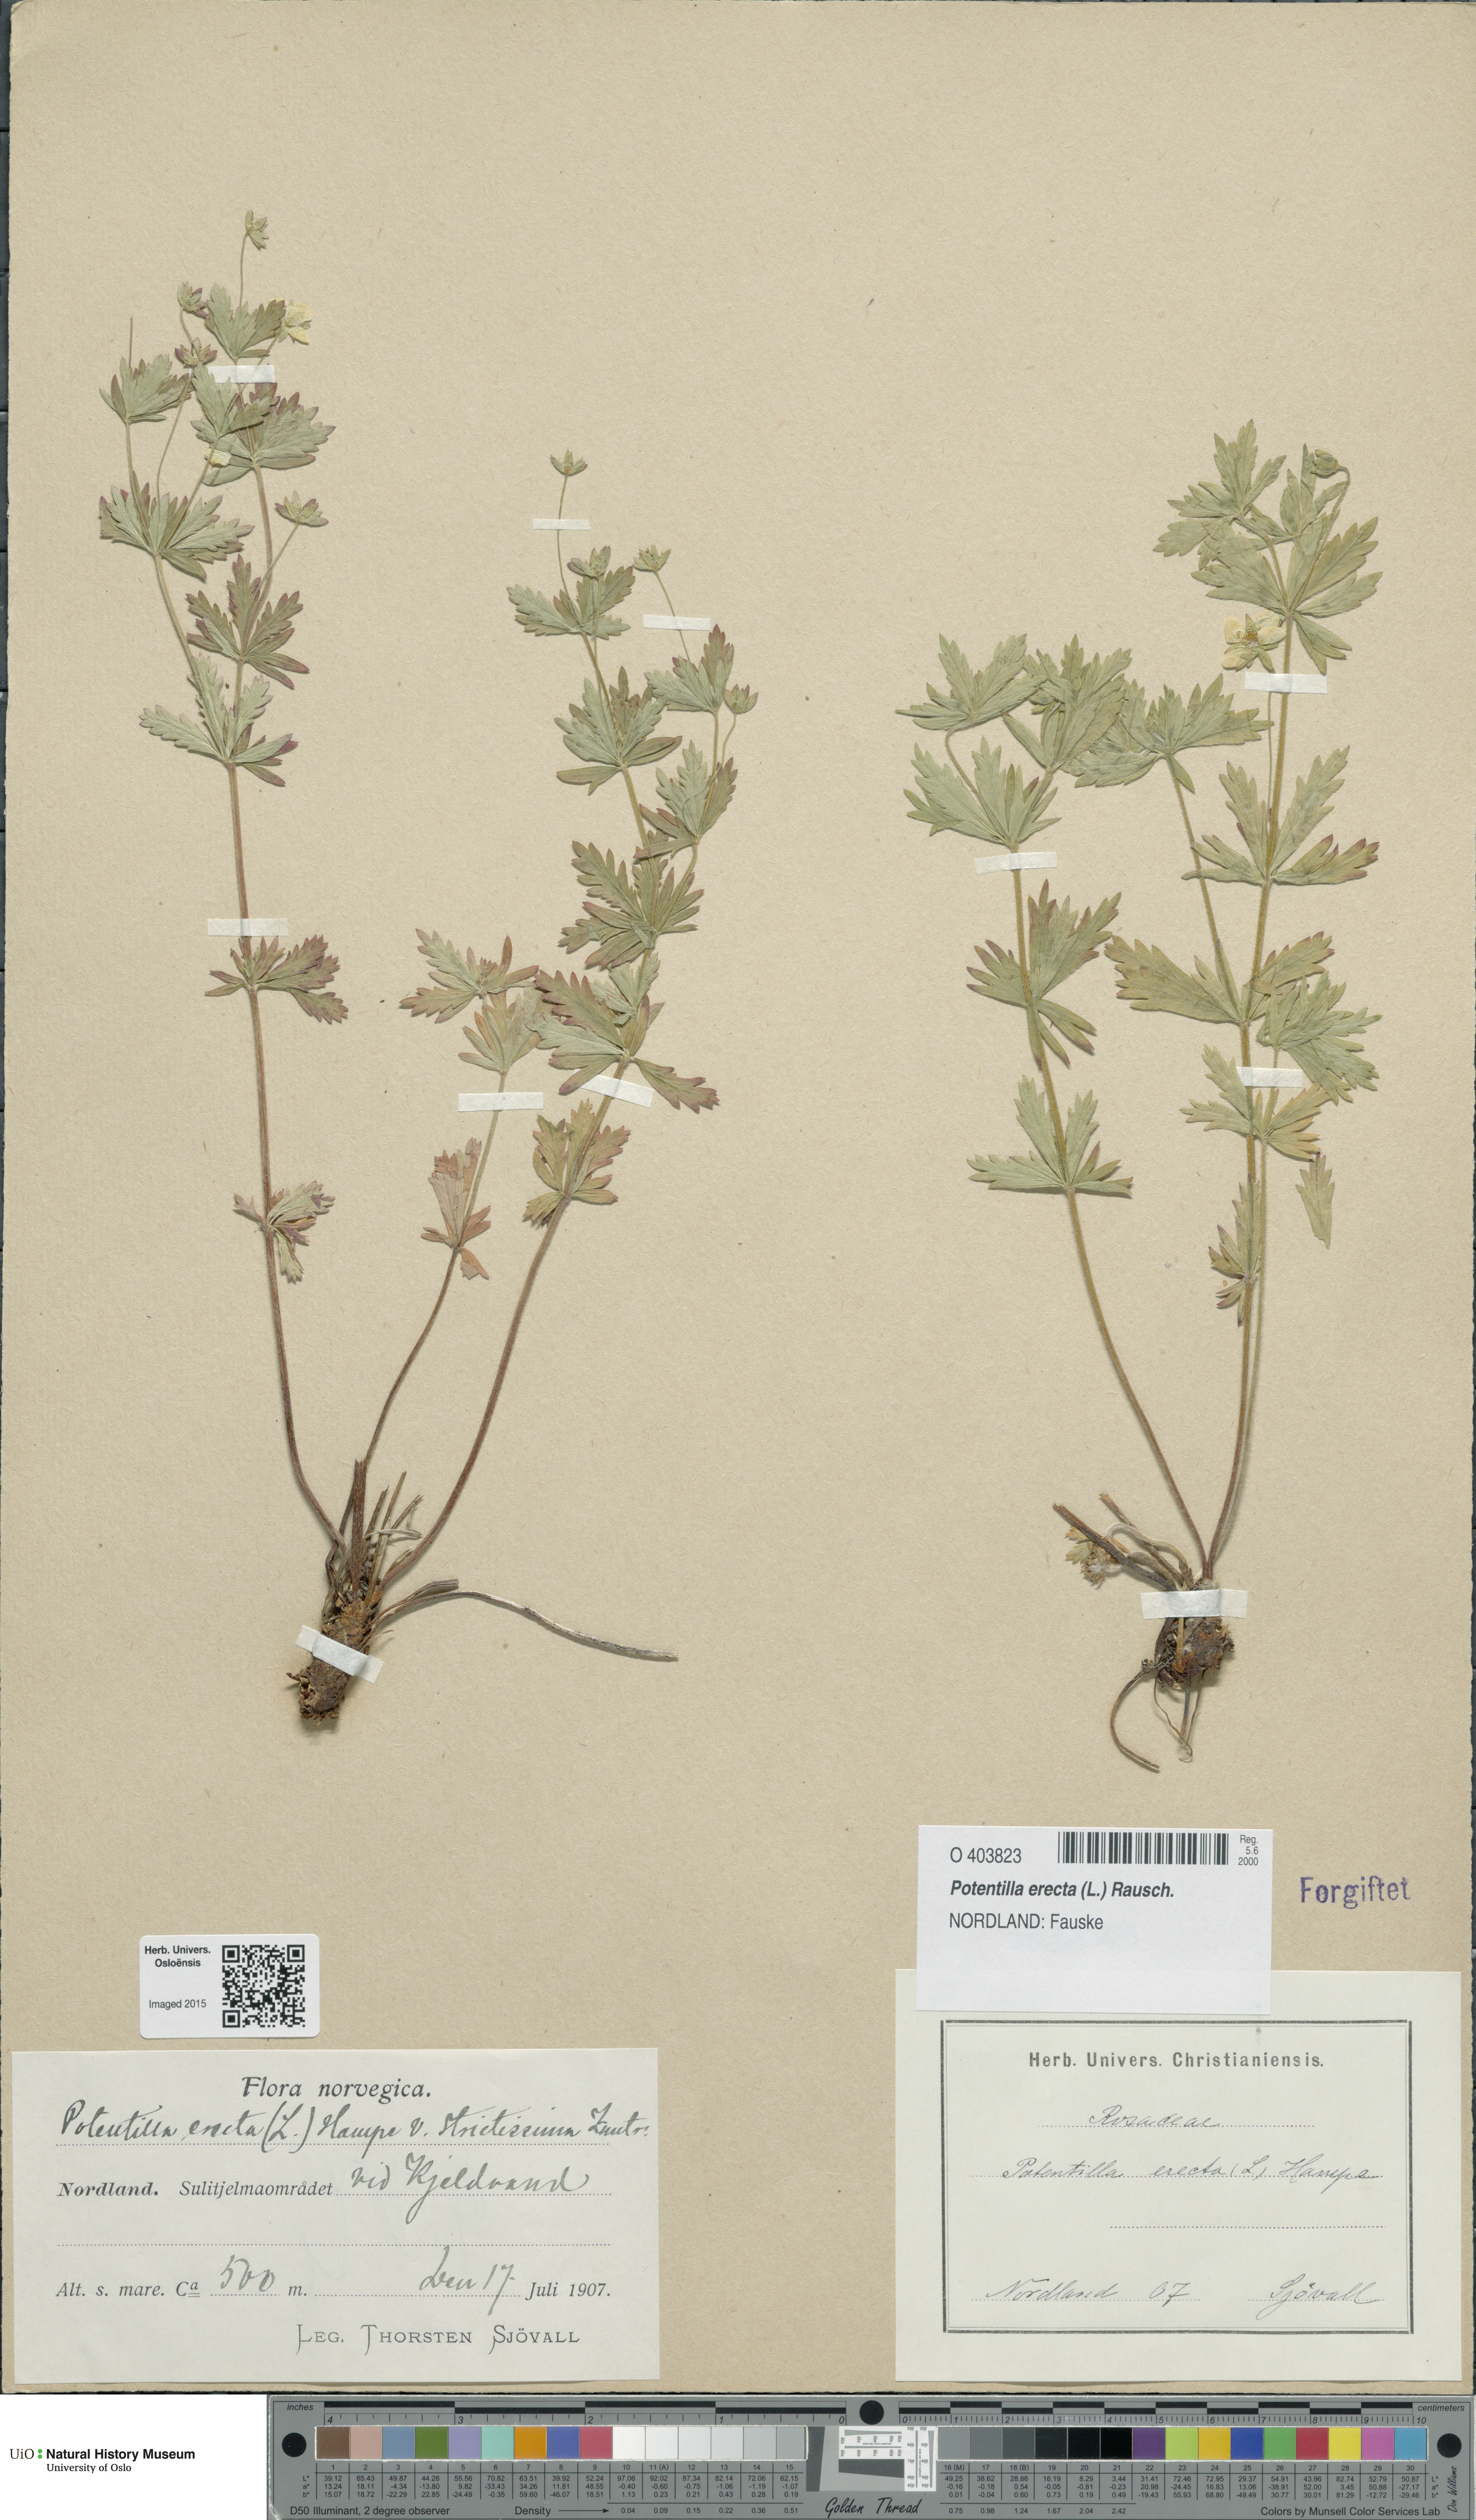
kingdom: Plantae
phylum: Tracheophyta
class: Magnoliopsida
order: Rosales
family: Rosaceae
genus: Potentilla
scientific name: Potentilla erecta
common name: Tormentil
